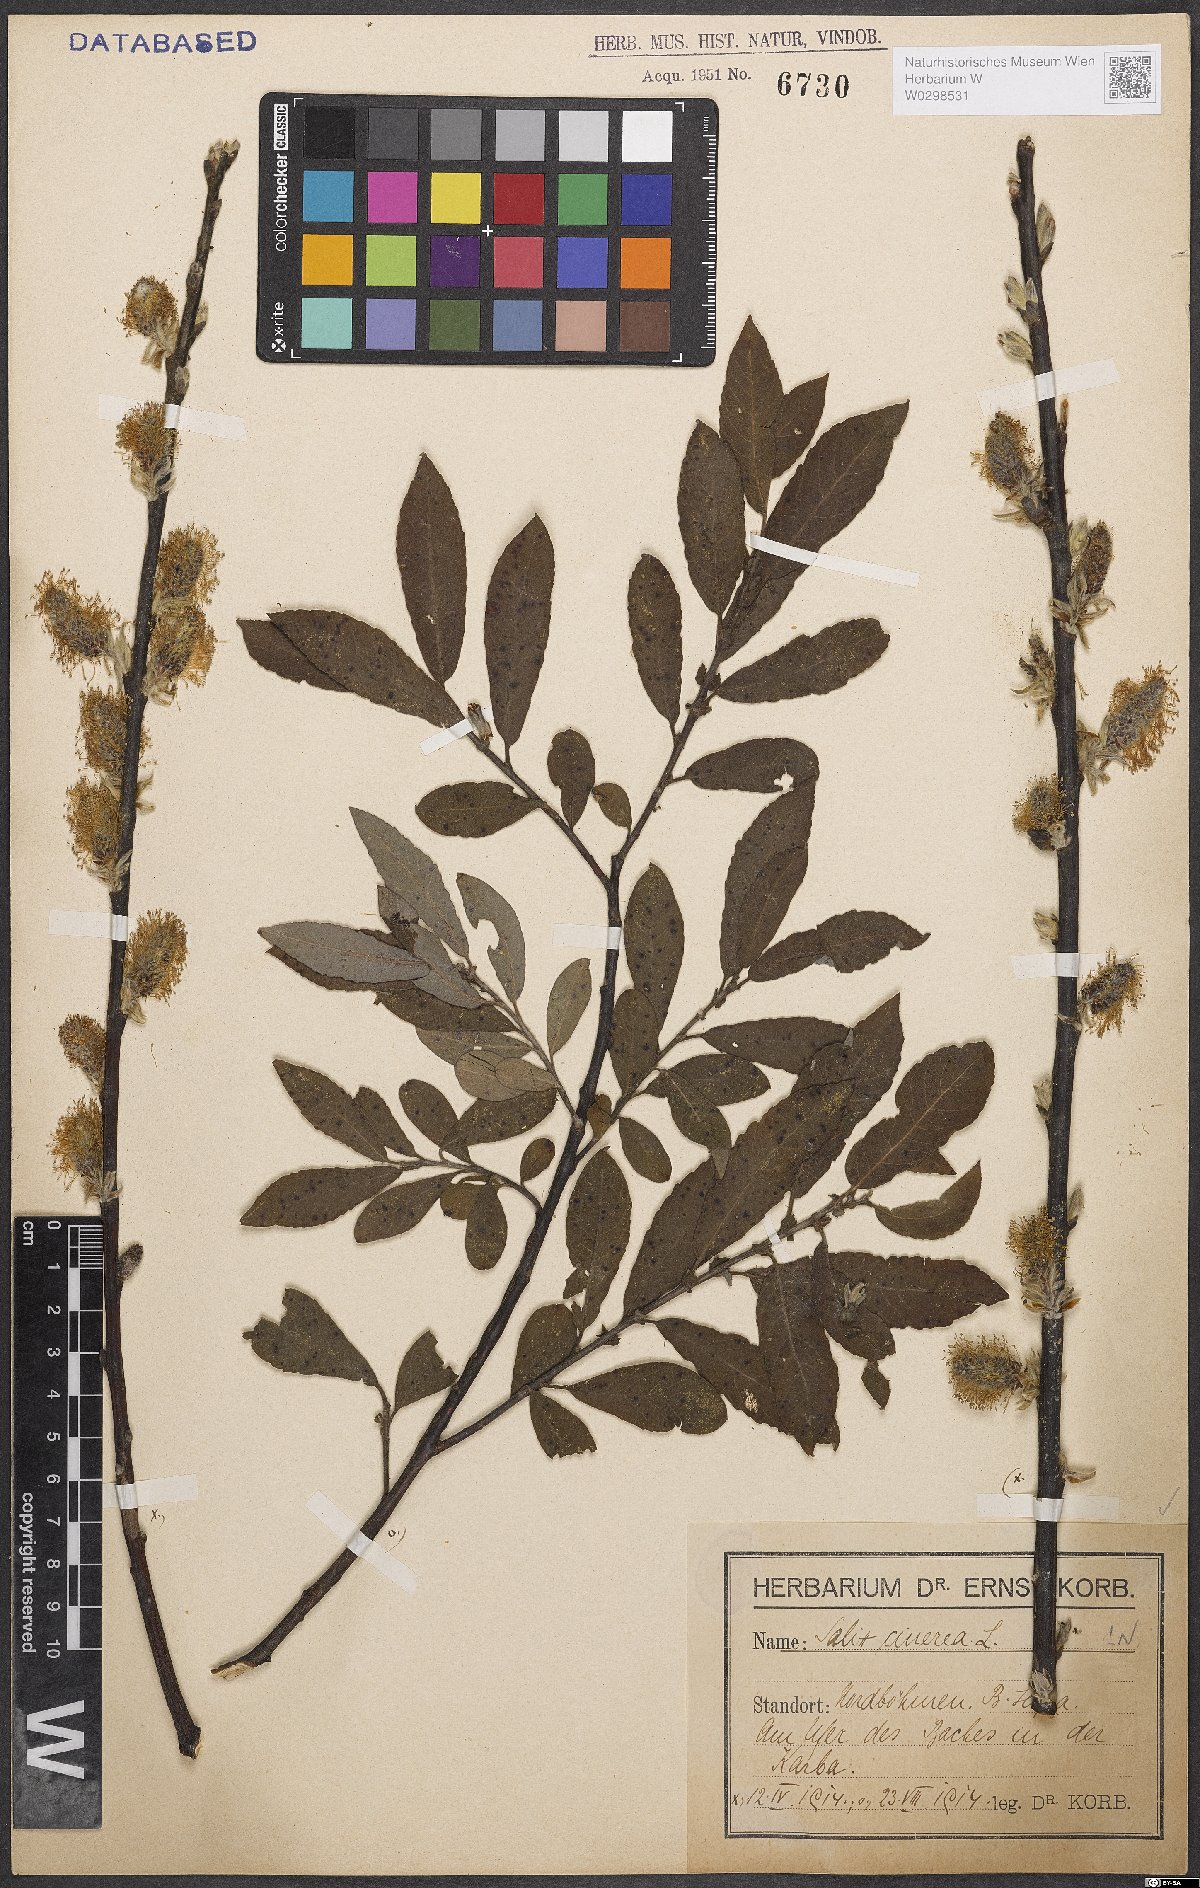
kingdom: Plantae
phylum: Tracheophyta
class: Magnoliopsida
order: Malpighiales
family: Salicaceae
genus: Salix
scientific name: Salix cinerea
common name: Common sallow
